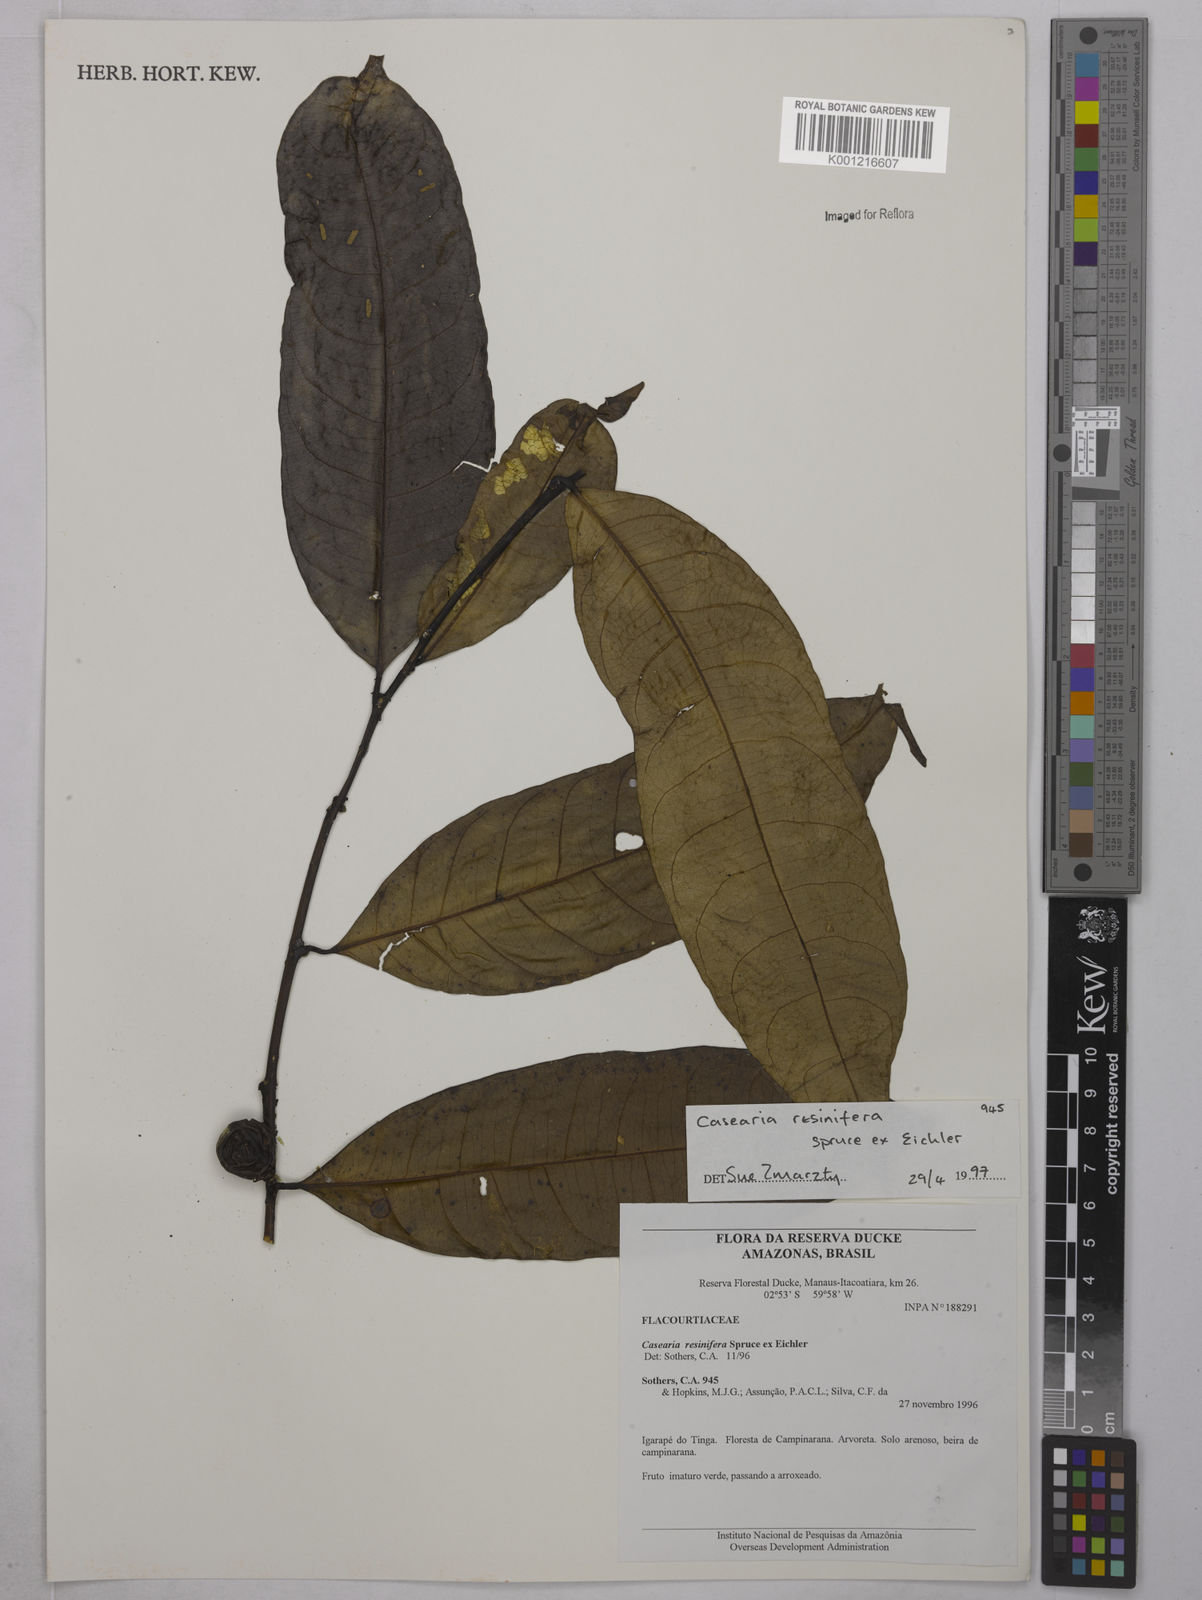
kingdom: Plantae
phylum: Tracheophyta
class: Magnoliopsida
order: Malpighiales
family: Salicaceae
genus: Casearia
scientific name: Casearia resinifera
